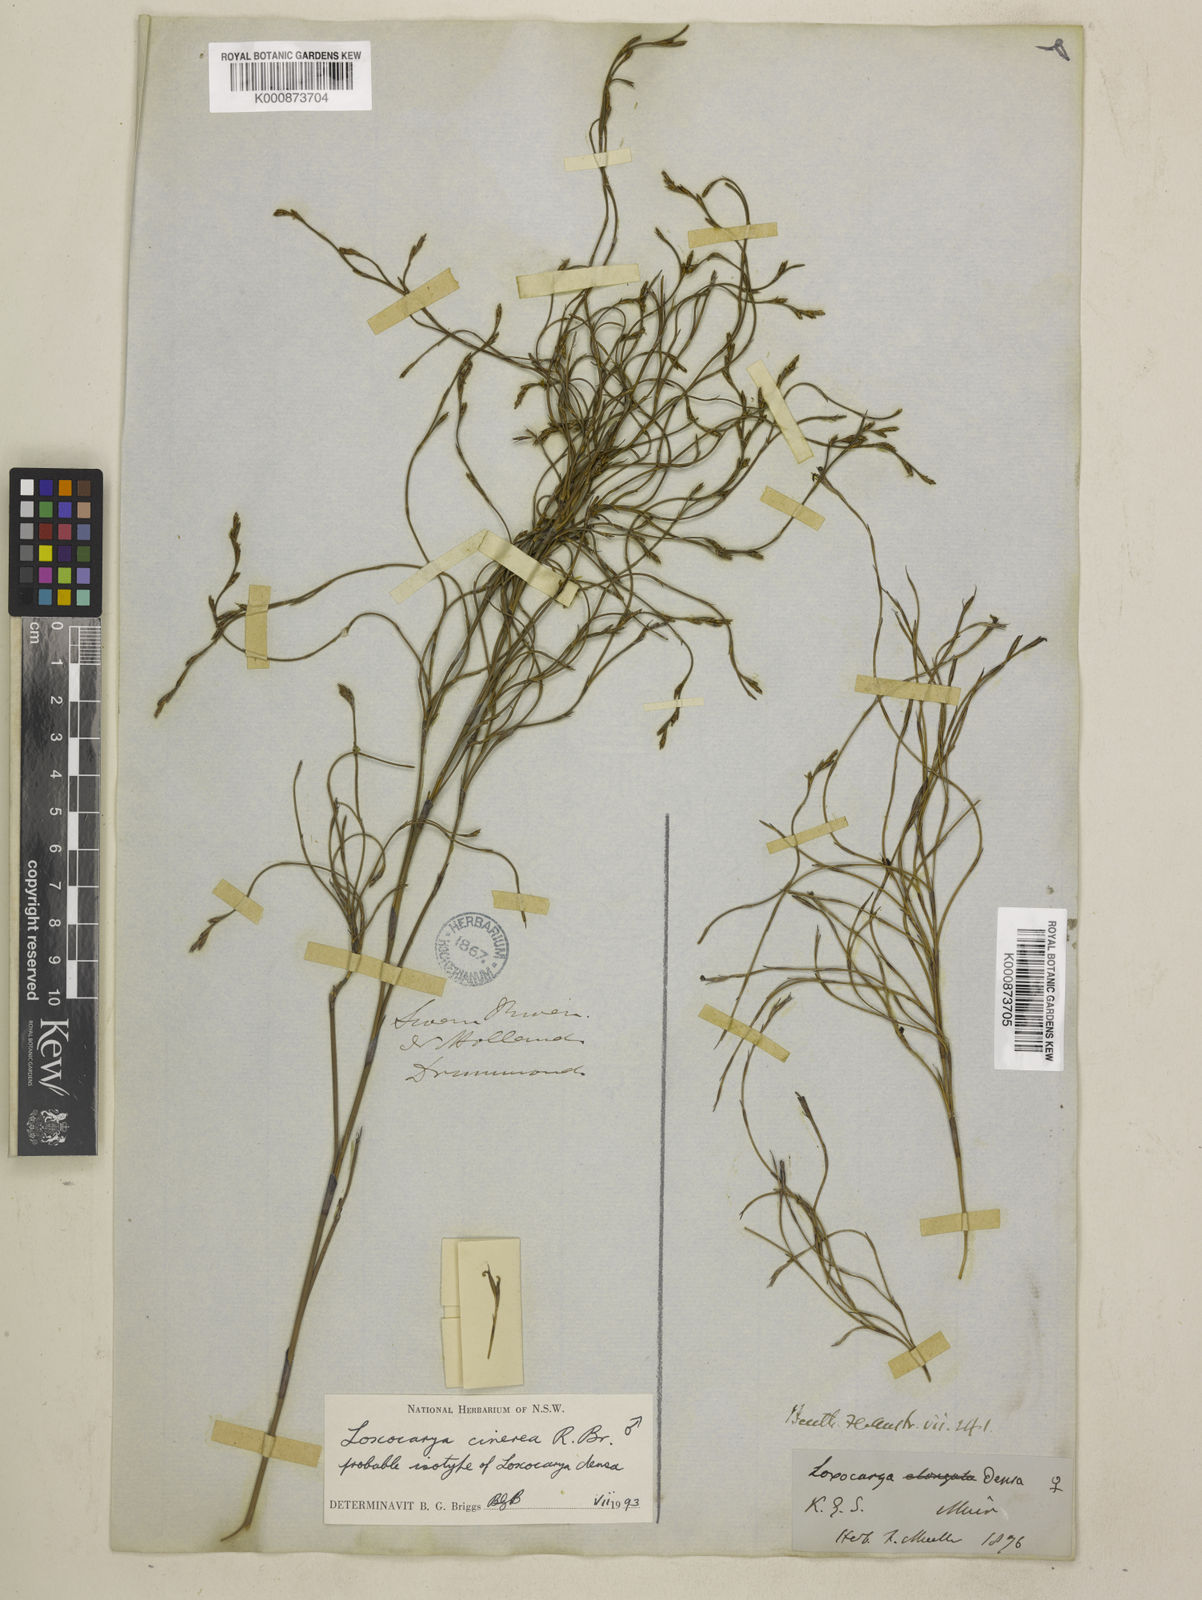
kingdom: Plantae
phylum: Tracheophyta
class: Liliopsida
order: Poales
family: Restionaceae
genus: Loxocarya
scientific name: Loxocarya cinerea
